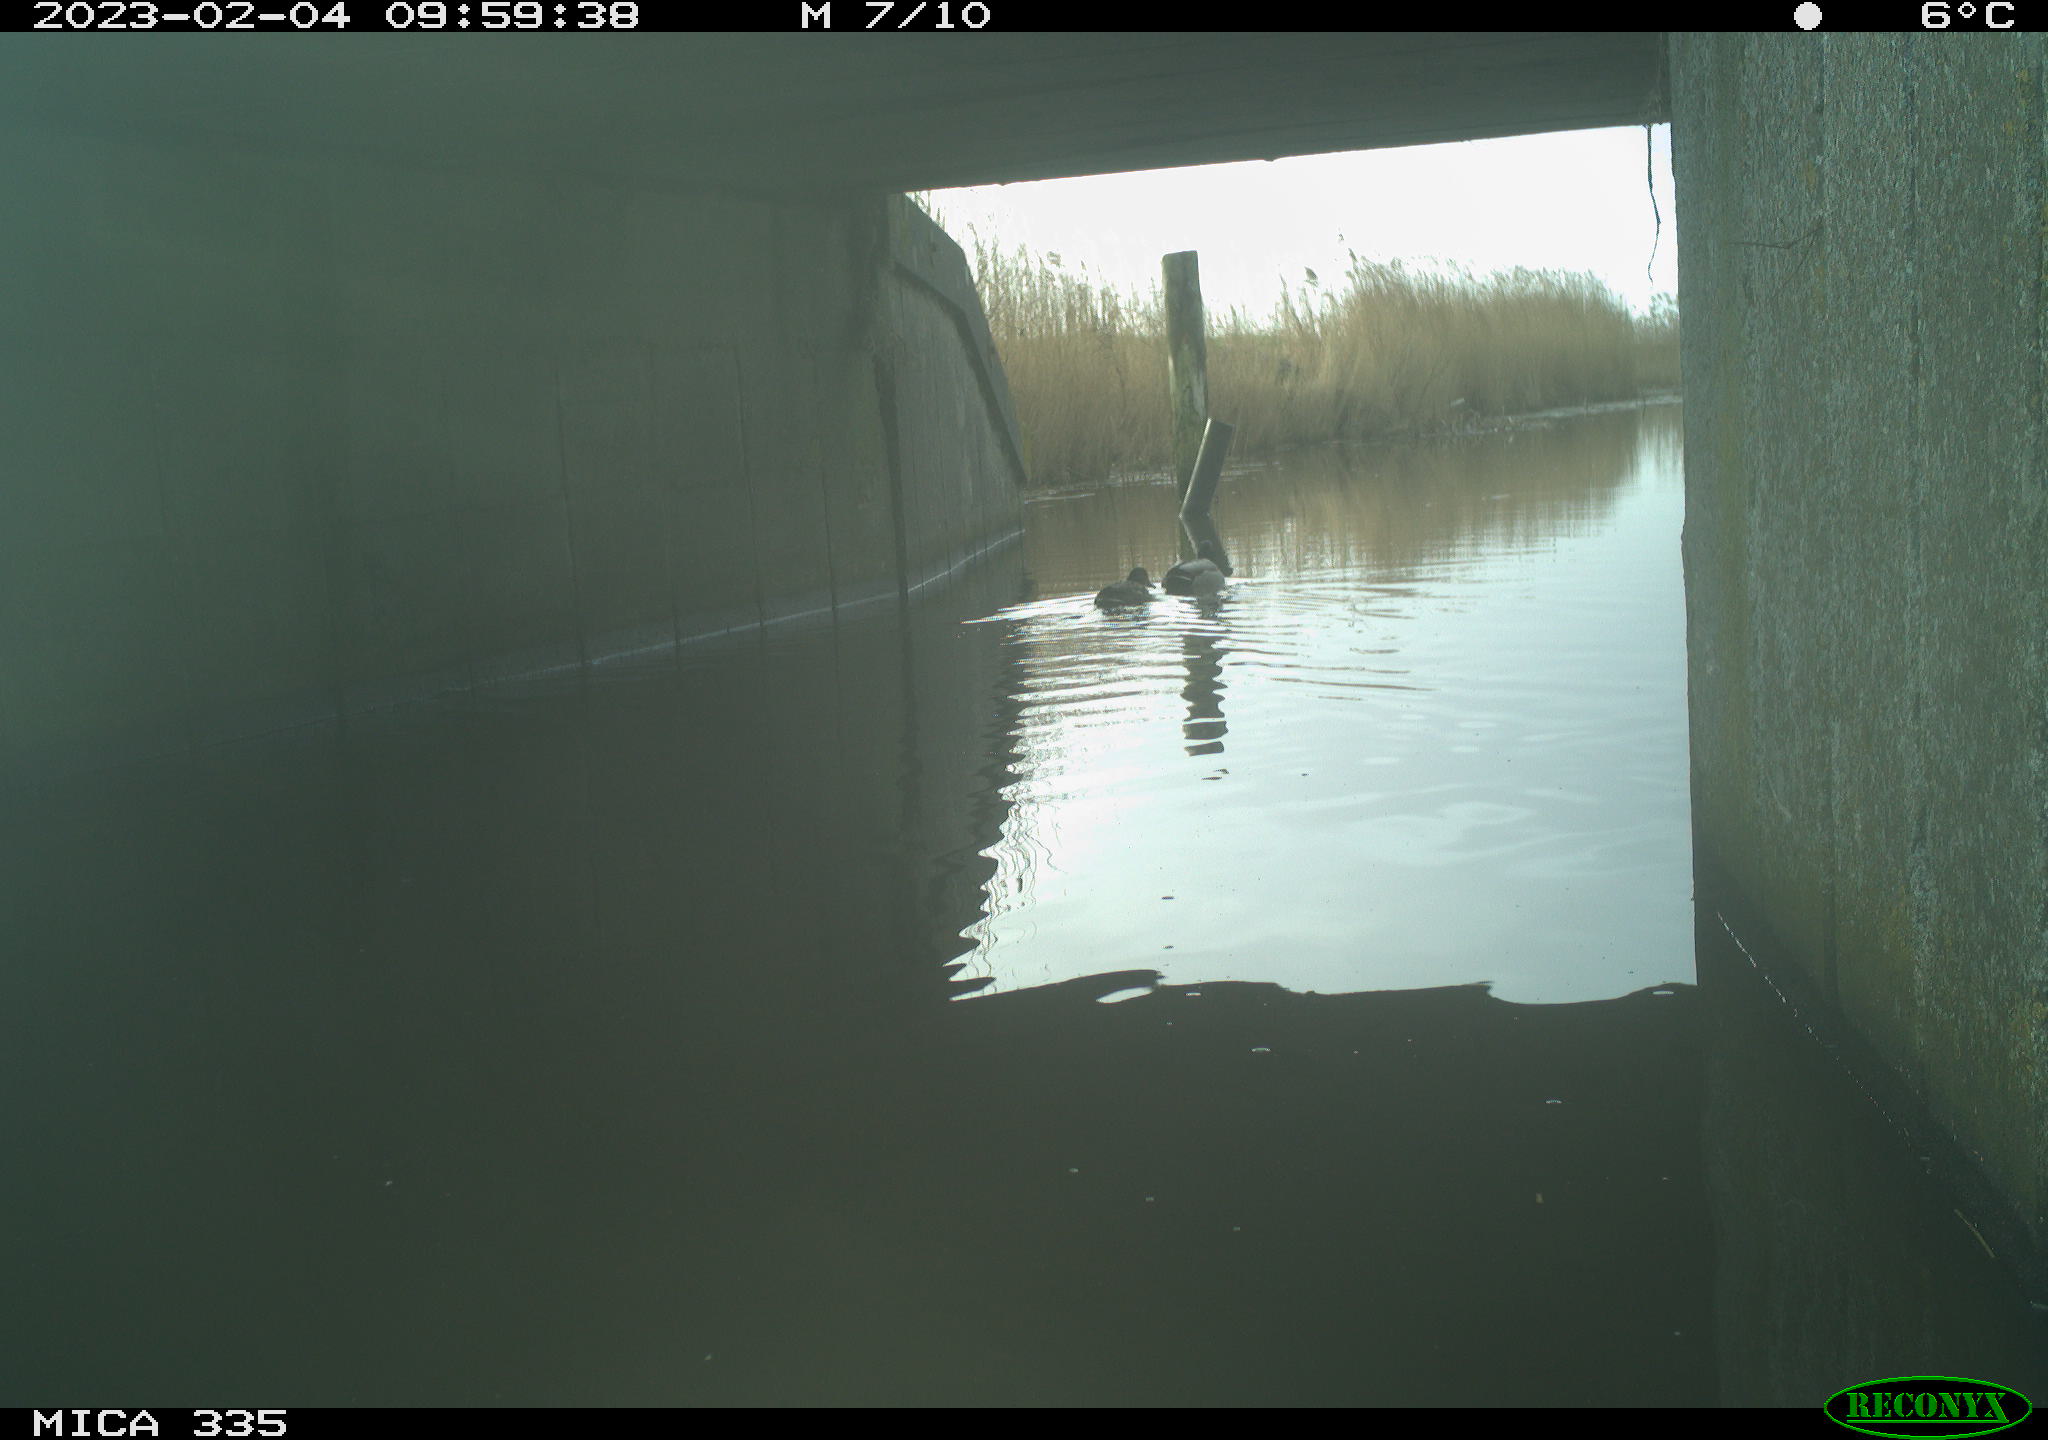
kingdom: Animalia
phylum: Chordata
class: Aves
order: Anseriformes
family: Anatidae
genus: Anas
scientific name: Anas
